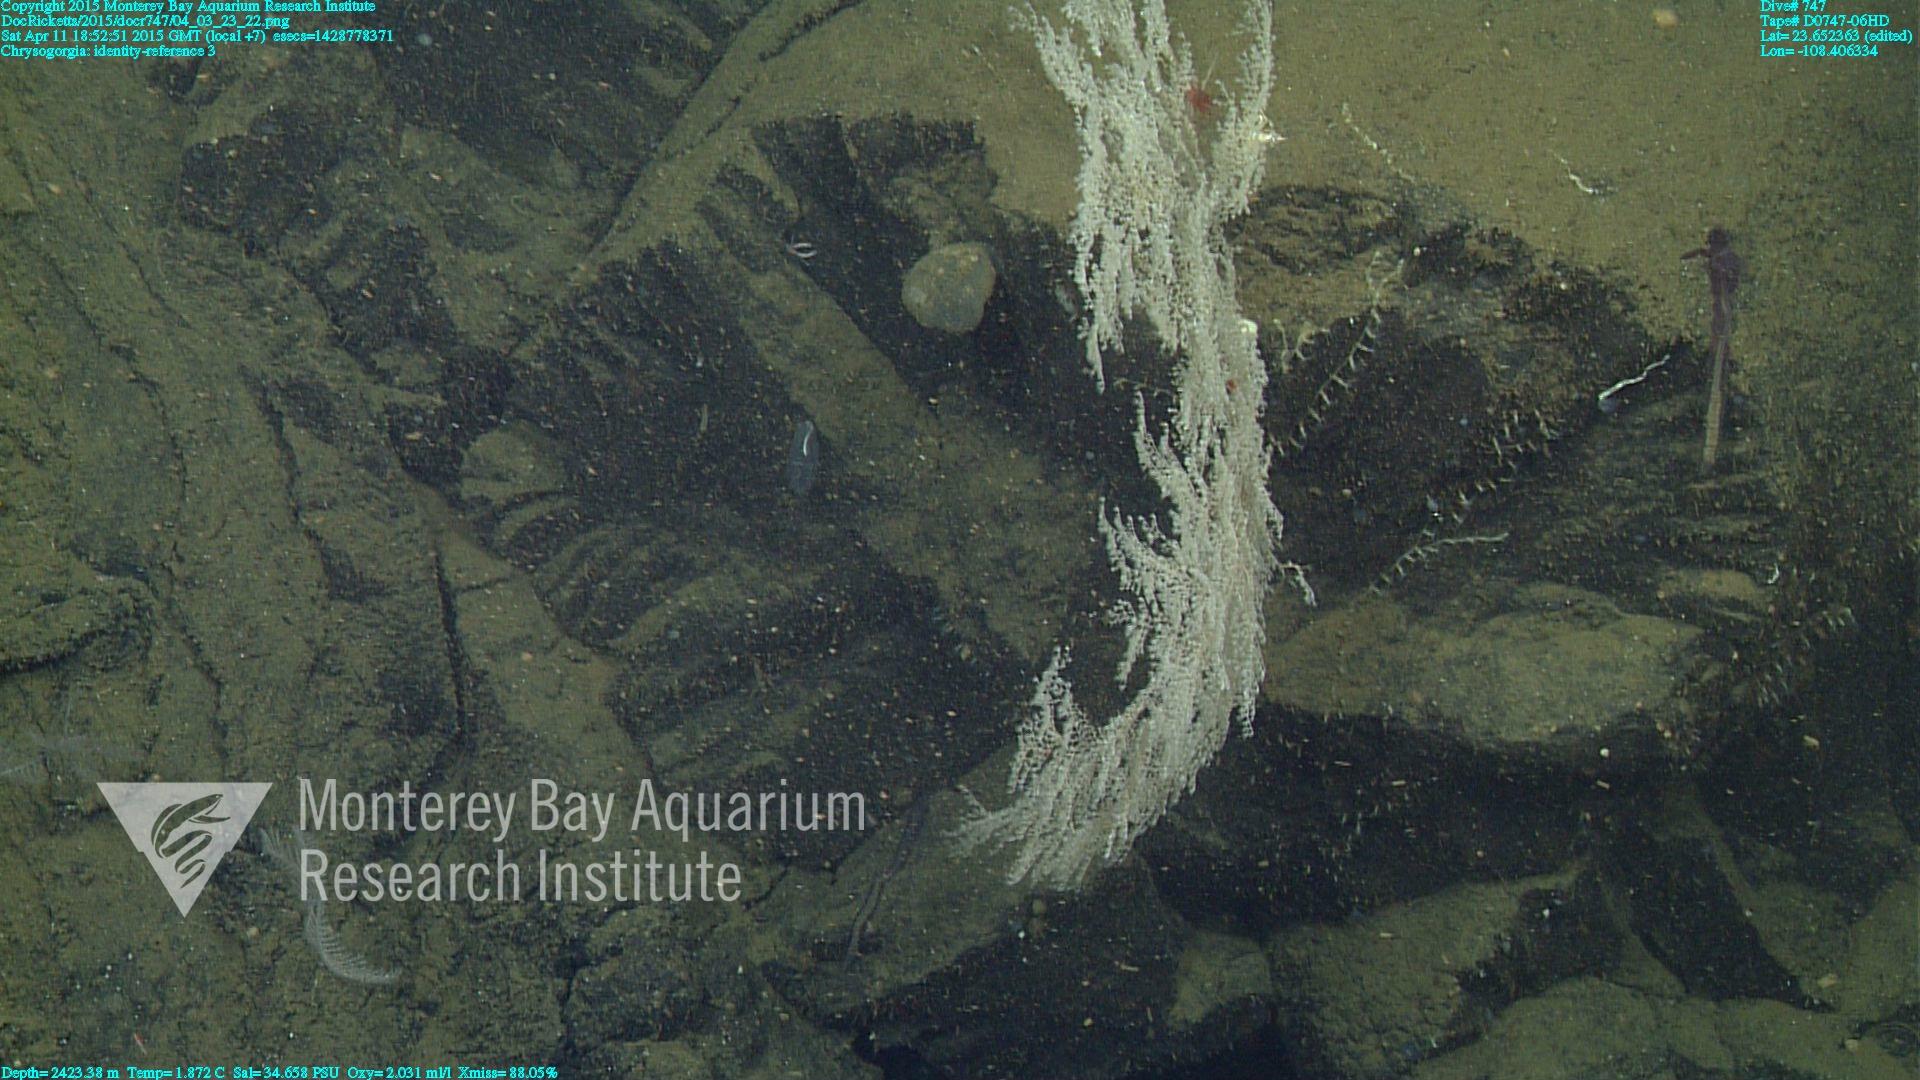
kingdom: Animalia
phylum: Cnidaria
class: Anthozoa
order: Scleralcyonacea
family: Chrysogorgiidae
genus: Chrysogorgia
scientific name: Chrysogorgia
